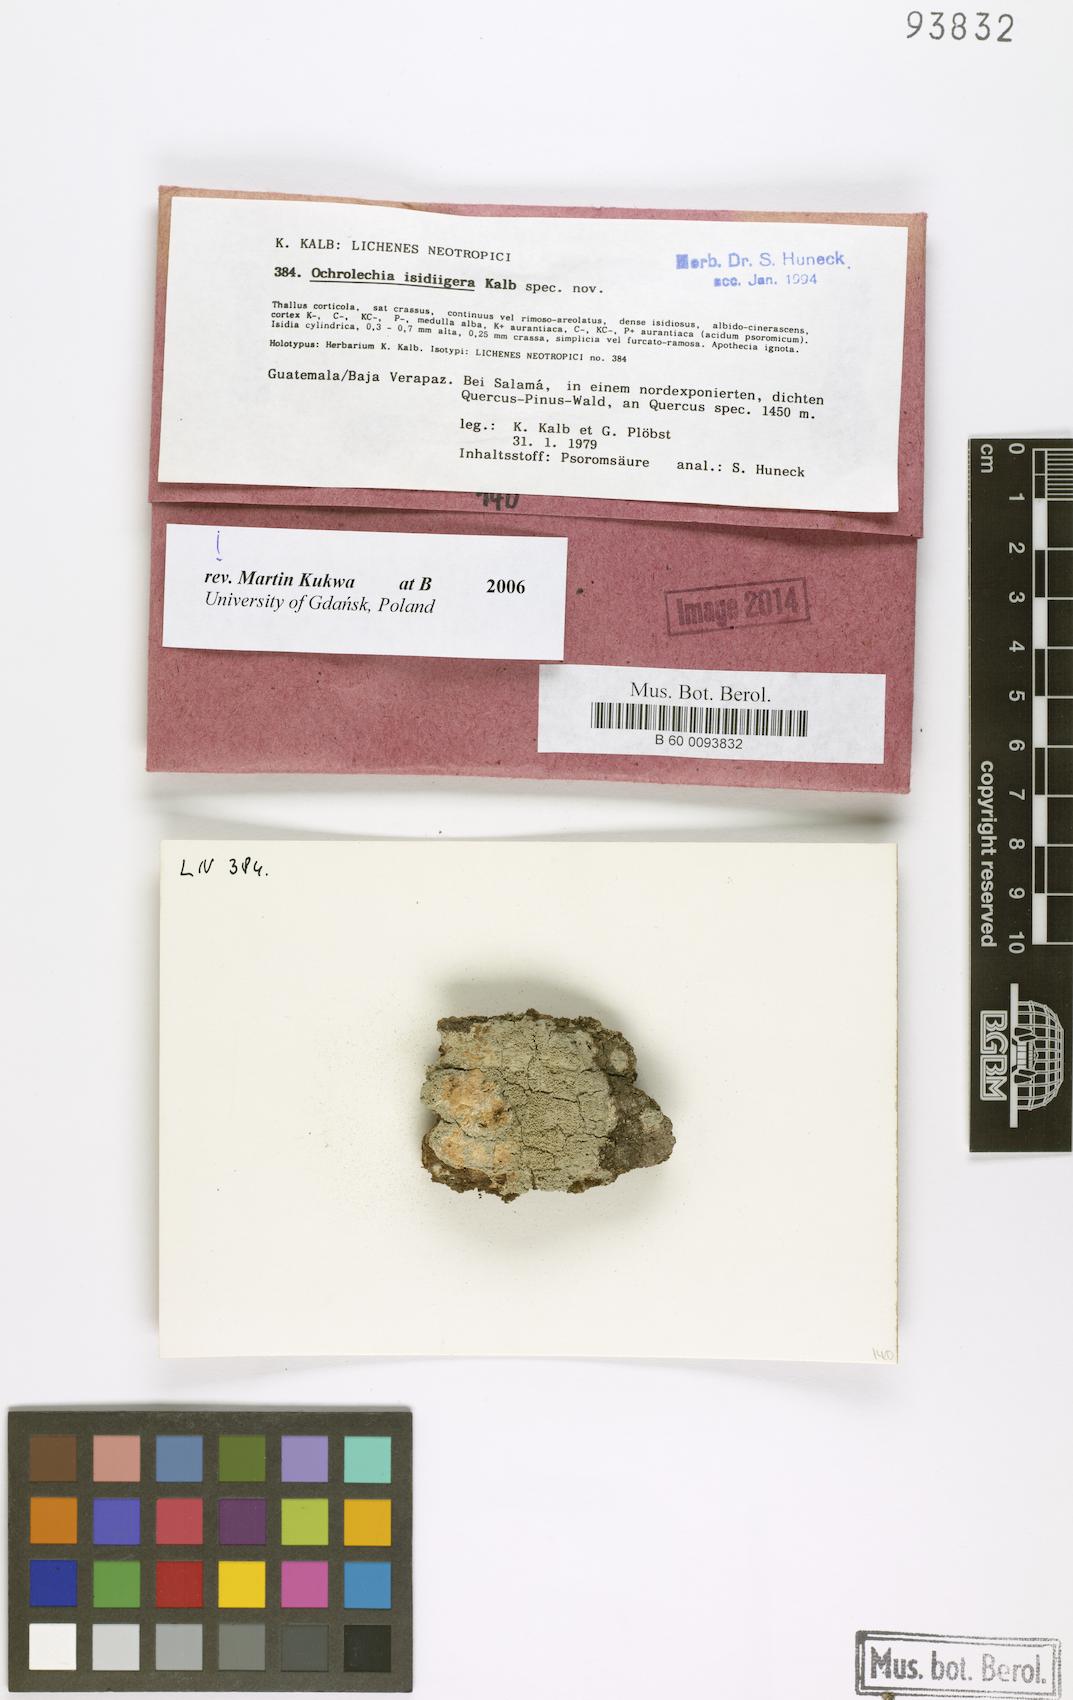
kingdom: Fungi
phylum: Ascomycota
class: Lecanoromycetes
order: Pertusariales
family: Ochrolechiaceae
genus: Ochrolechia
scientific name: Ochrolechia isidiigera
